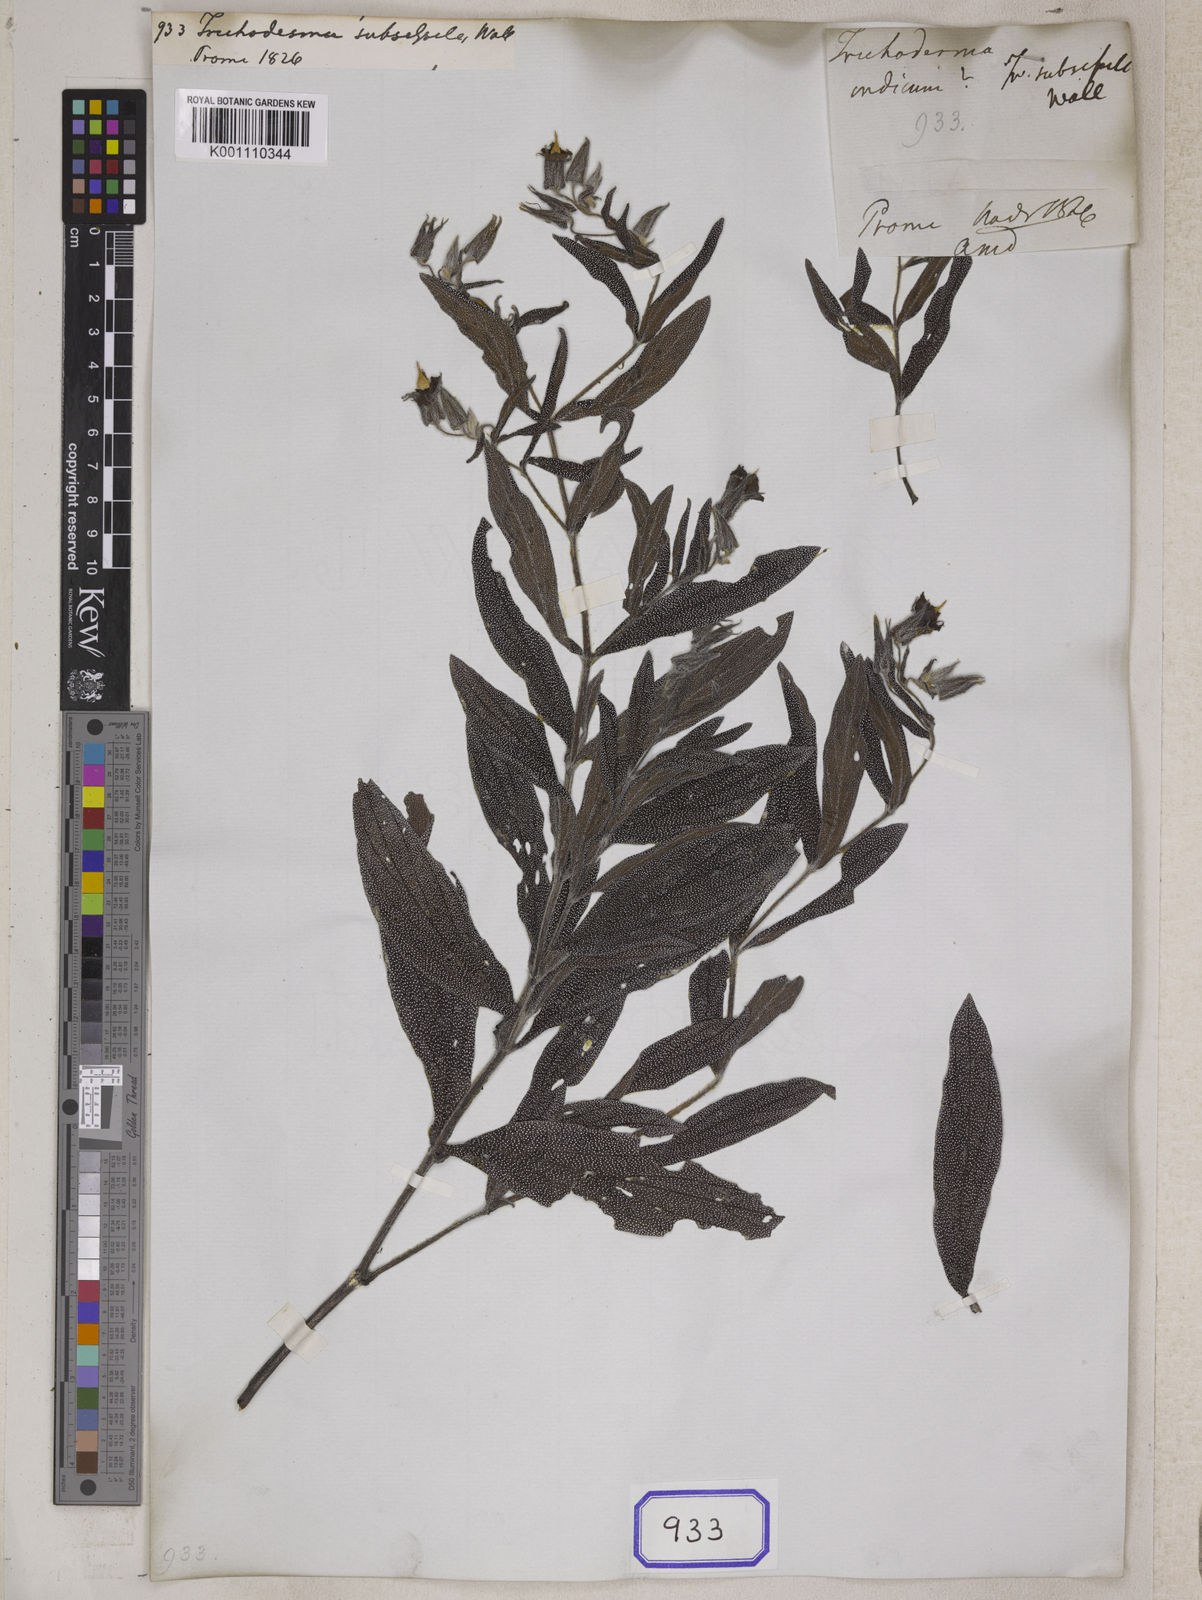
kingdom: Plantae
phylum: Tracheophyta
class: Magnoliopsida
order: Boraginales
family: Boraginaceae
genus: Trichodesma
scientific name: Trichodesma indicum
